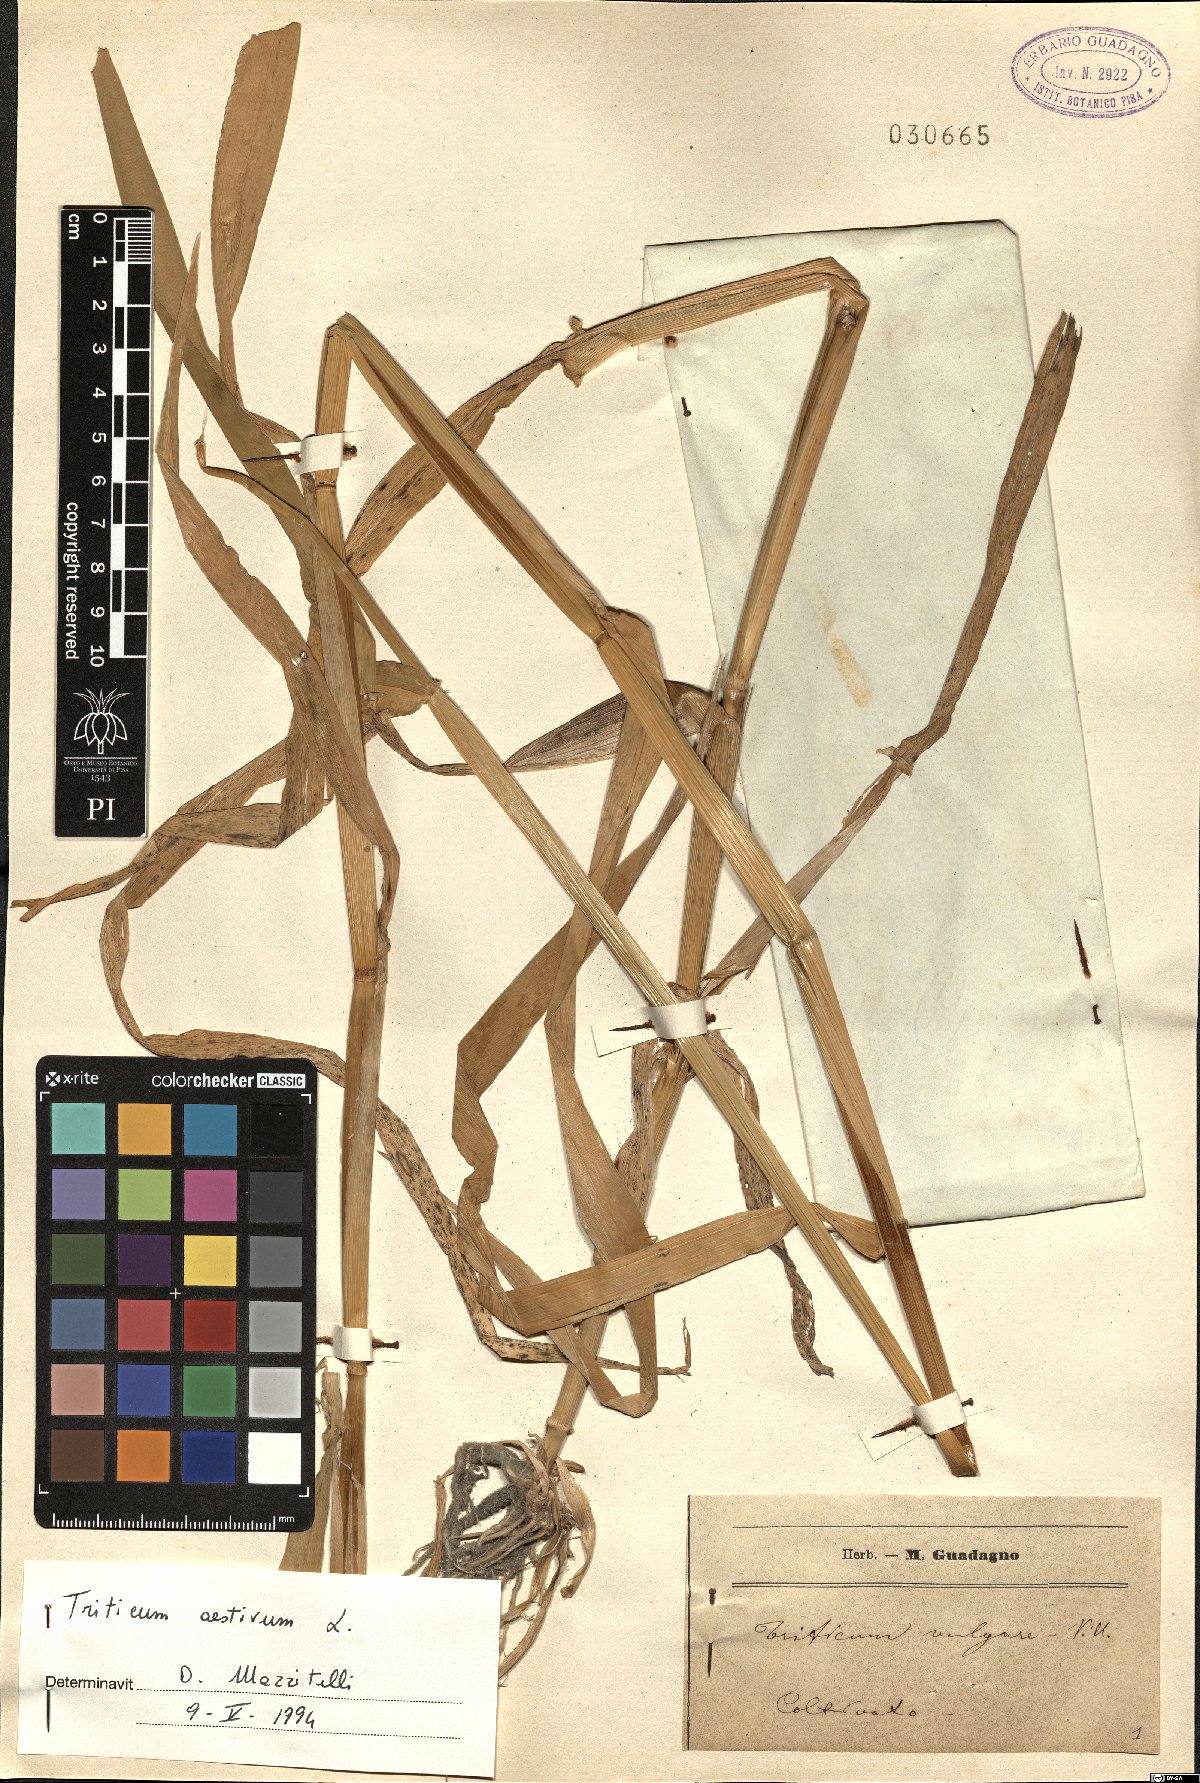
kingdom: Plantae
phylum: Tracheophyta
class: Liliopsida
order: Poales
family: Poaceae
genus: Triticum
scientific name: Triticum aestivum
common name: Common wheat
